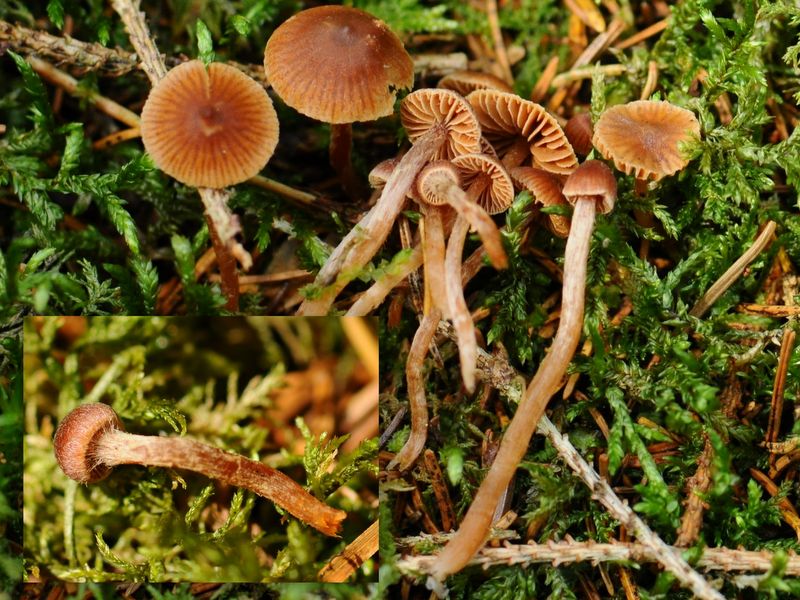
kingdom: Fungi
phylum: Basidiomycota
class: Agaricomycetes
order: Agaricales
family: Cortinariaceae
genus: Cortinarius
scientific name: Cortinarius pseudoacutus
